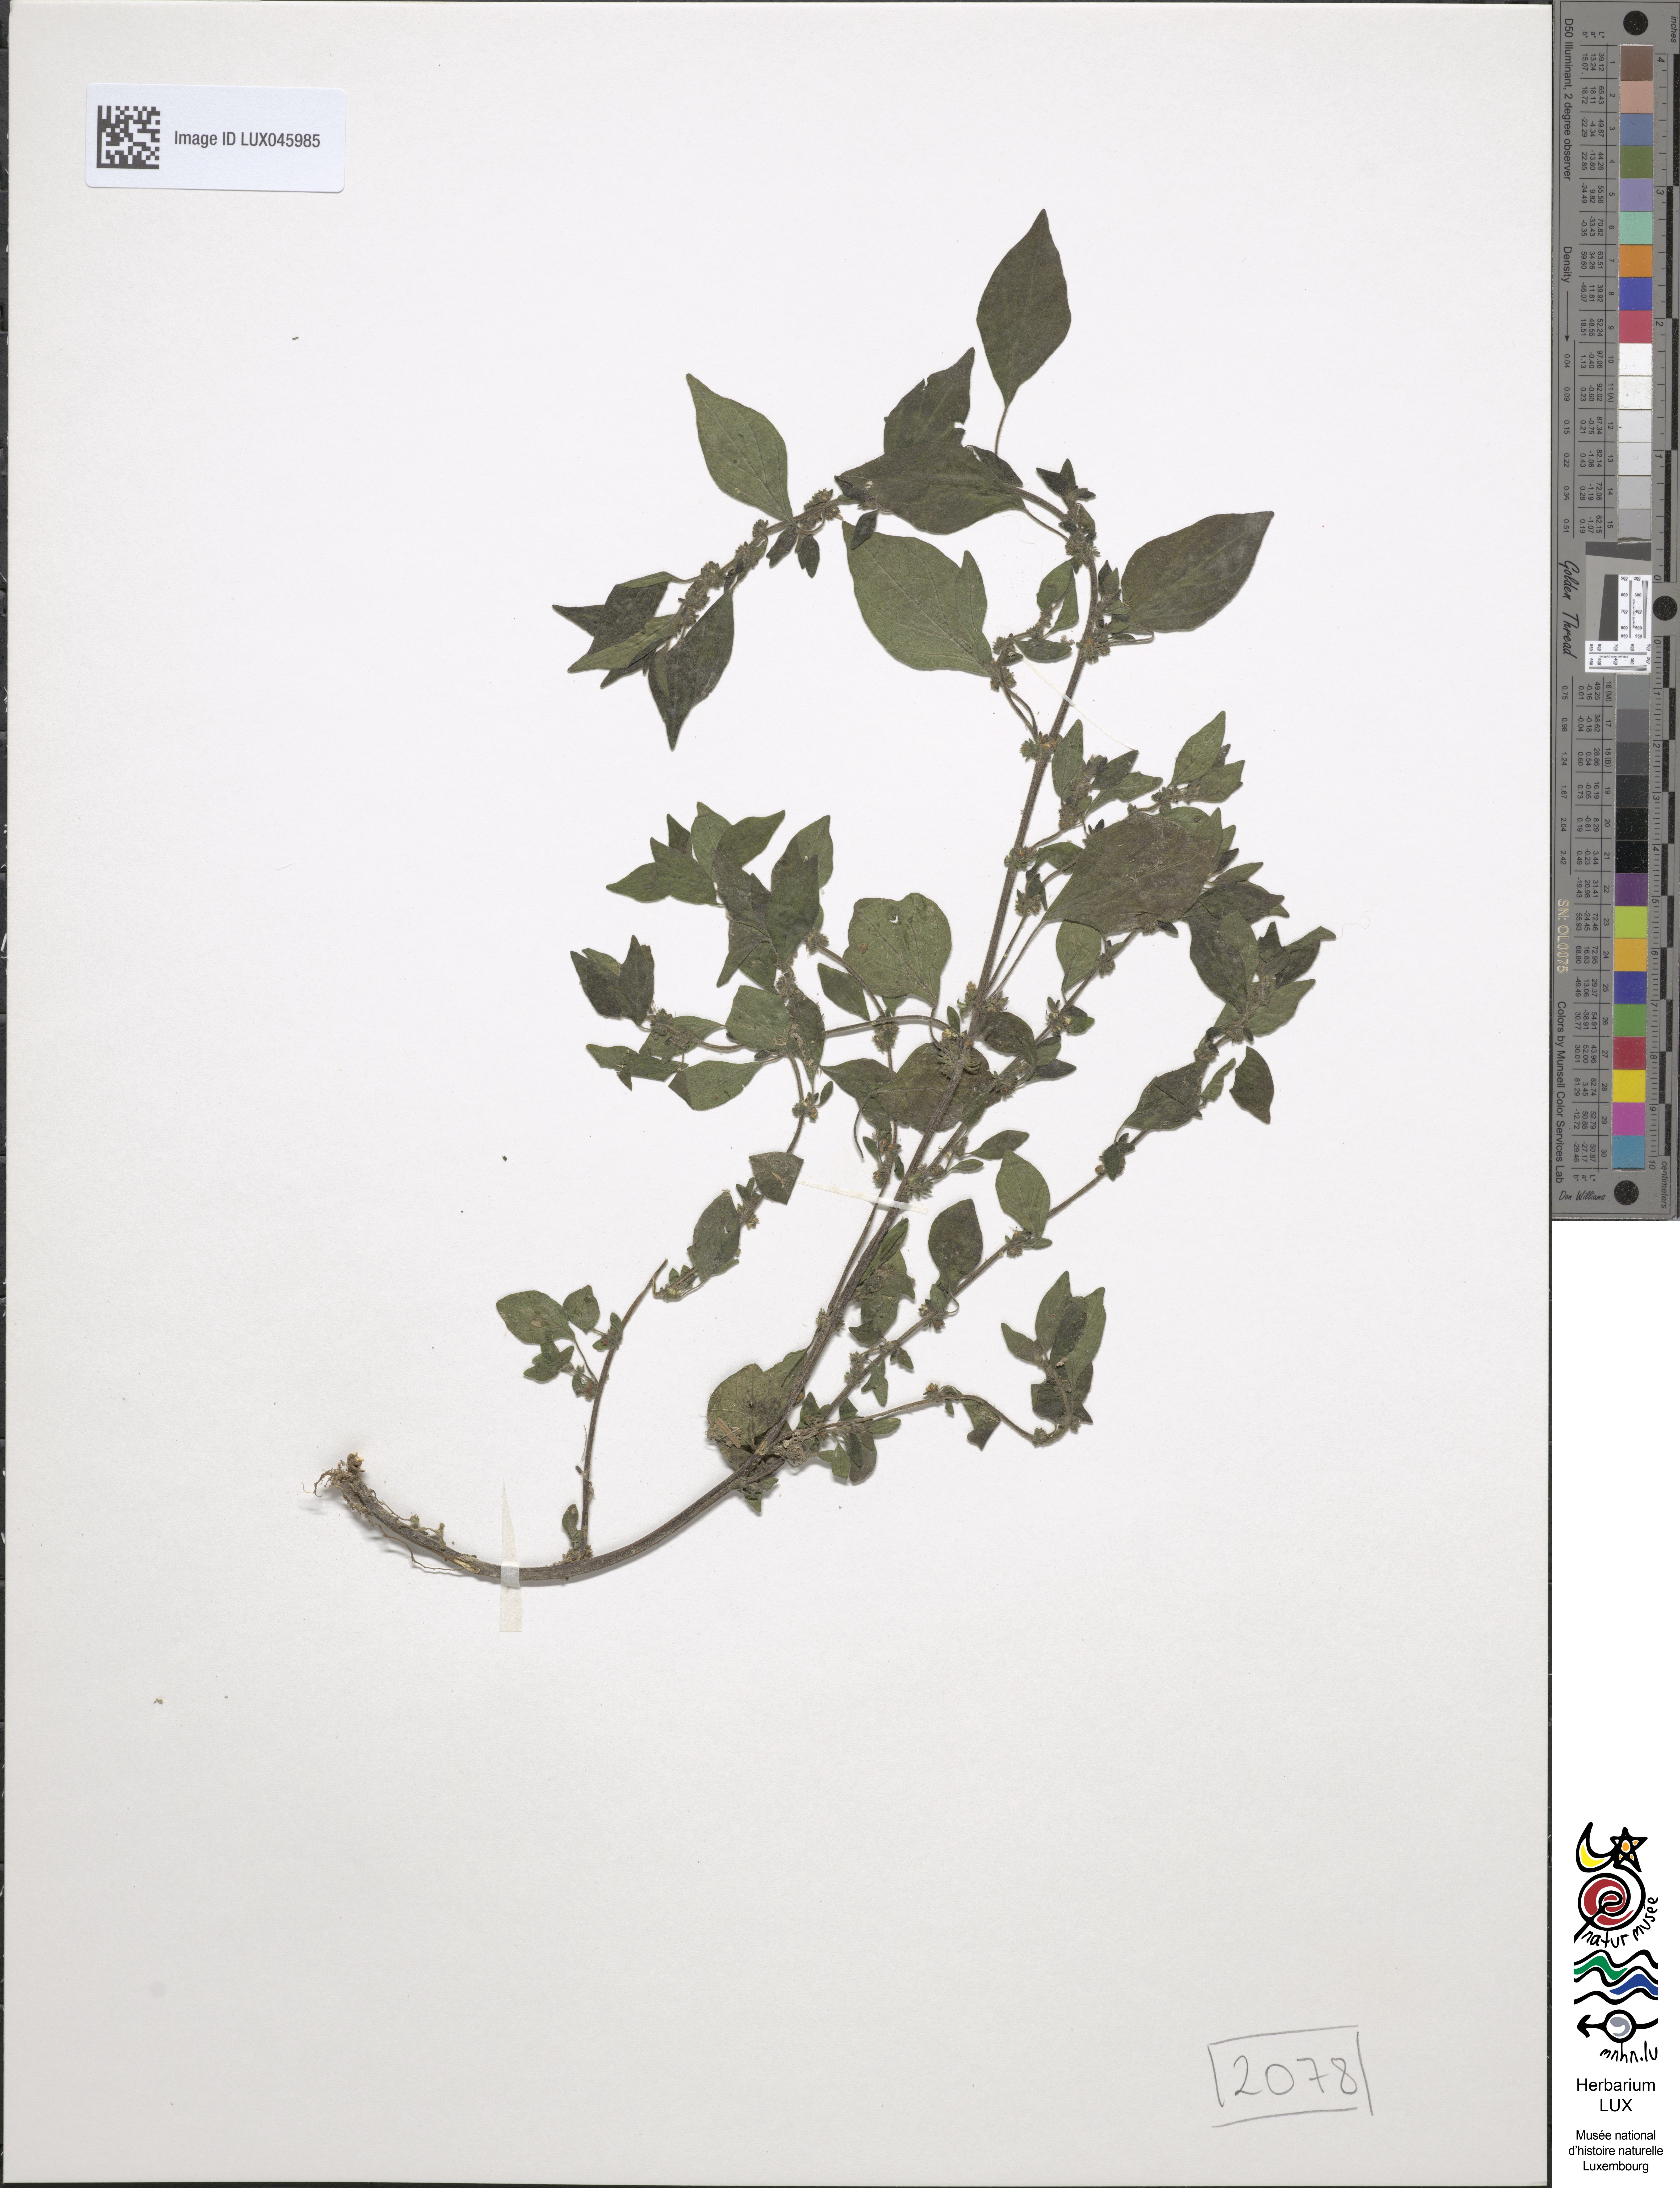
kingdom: Plantae
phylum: Tracheophyta
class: Magnoliopsida
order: Rosales
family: Urticaceae
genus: Parietaria
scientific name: Parietaria judaica
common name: Pellitory-of-the-wall
